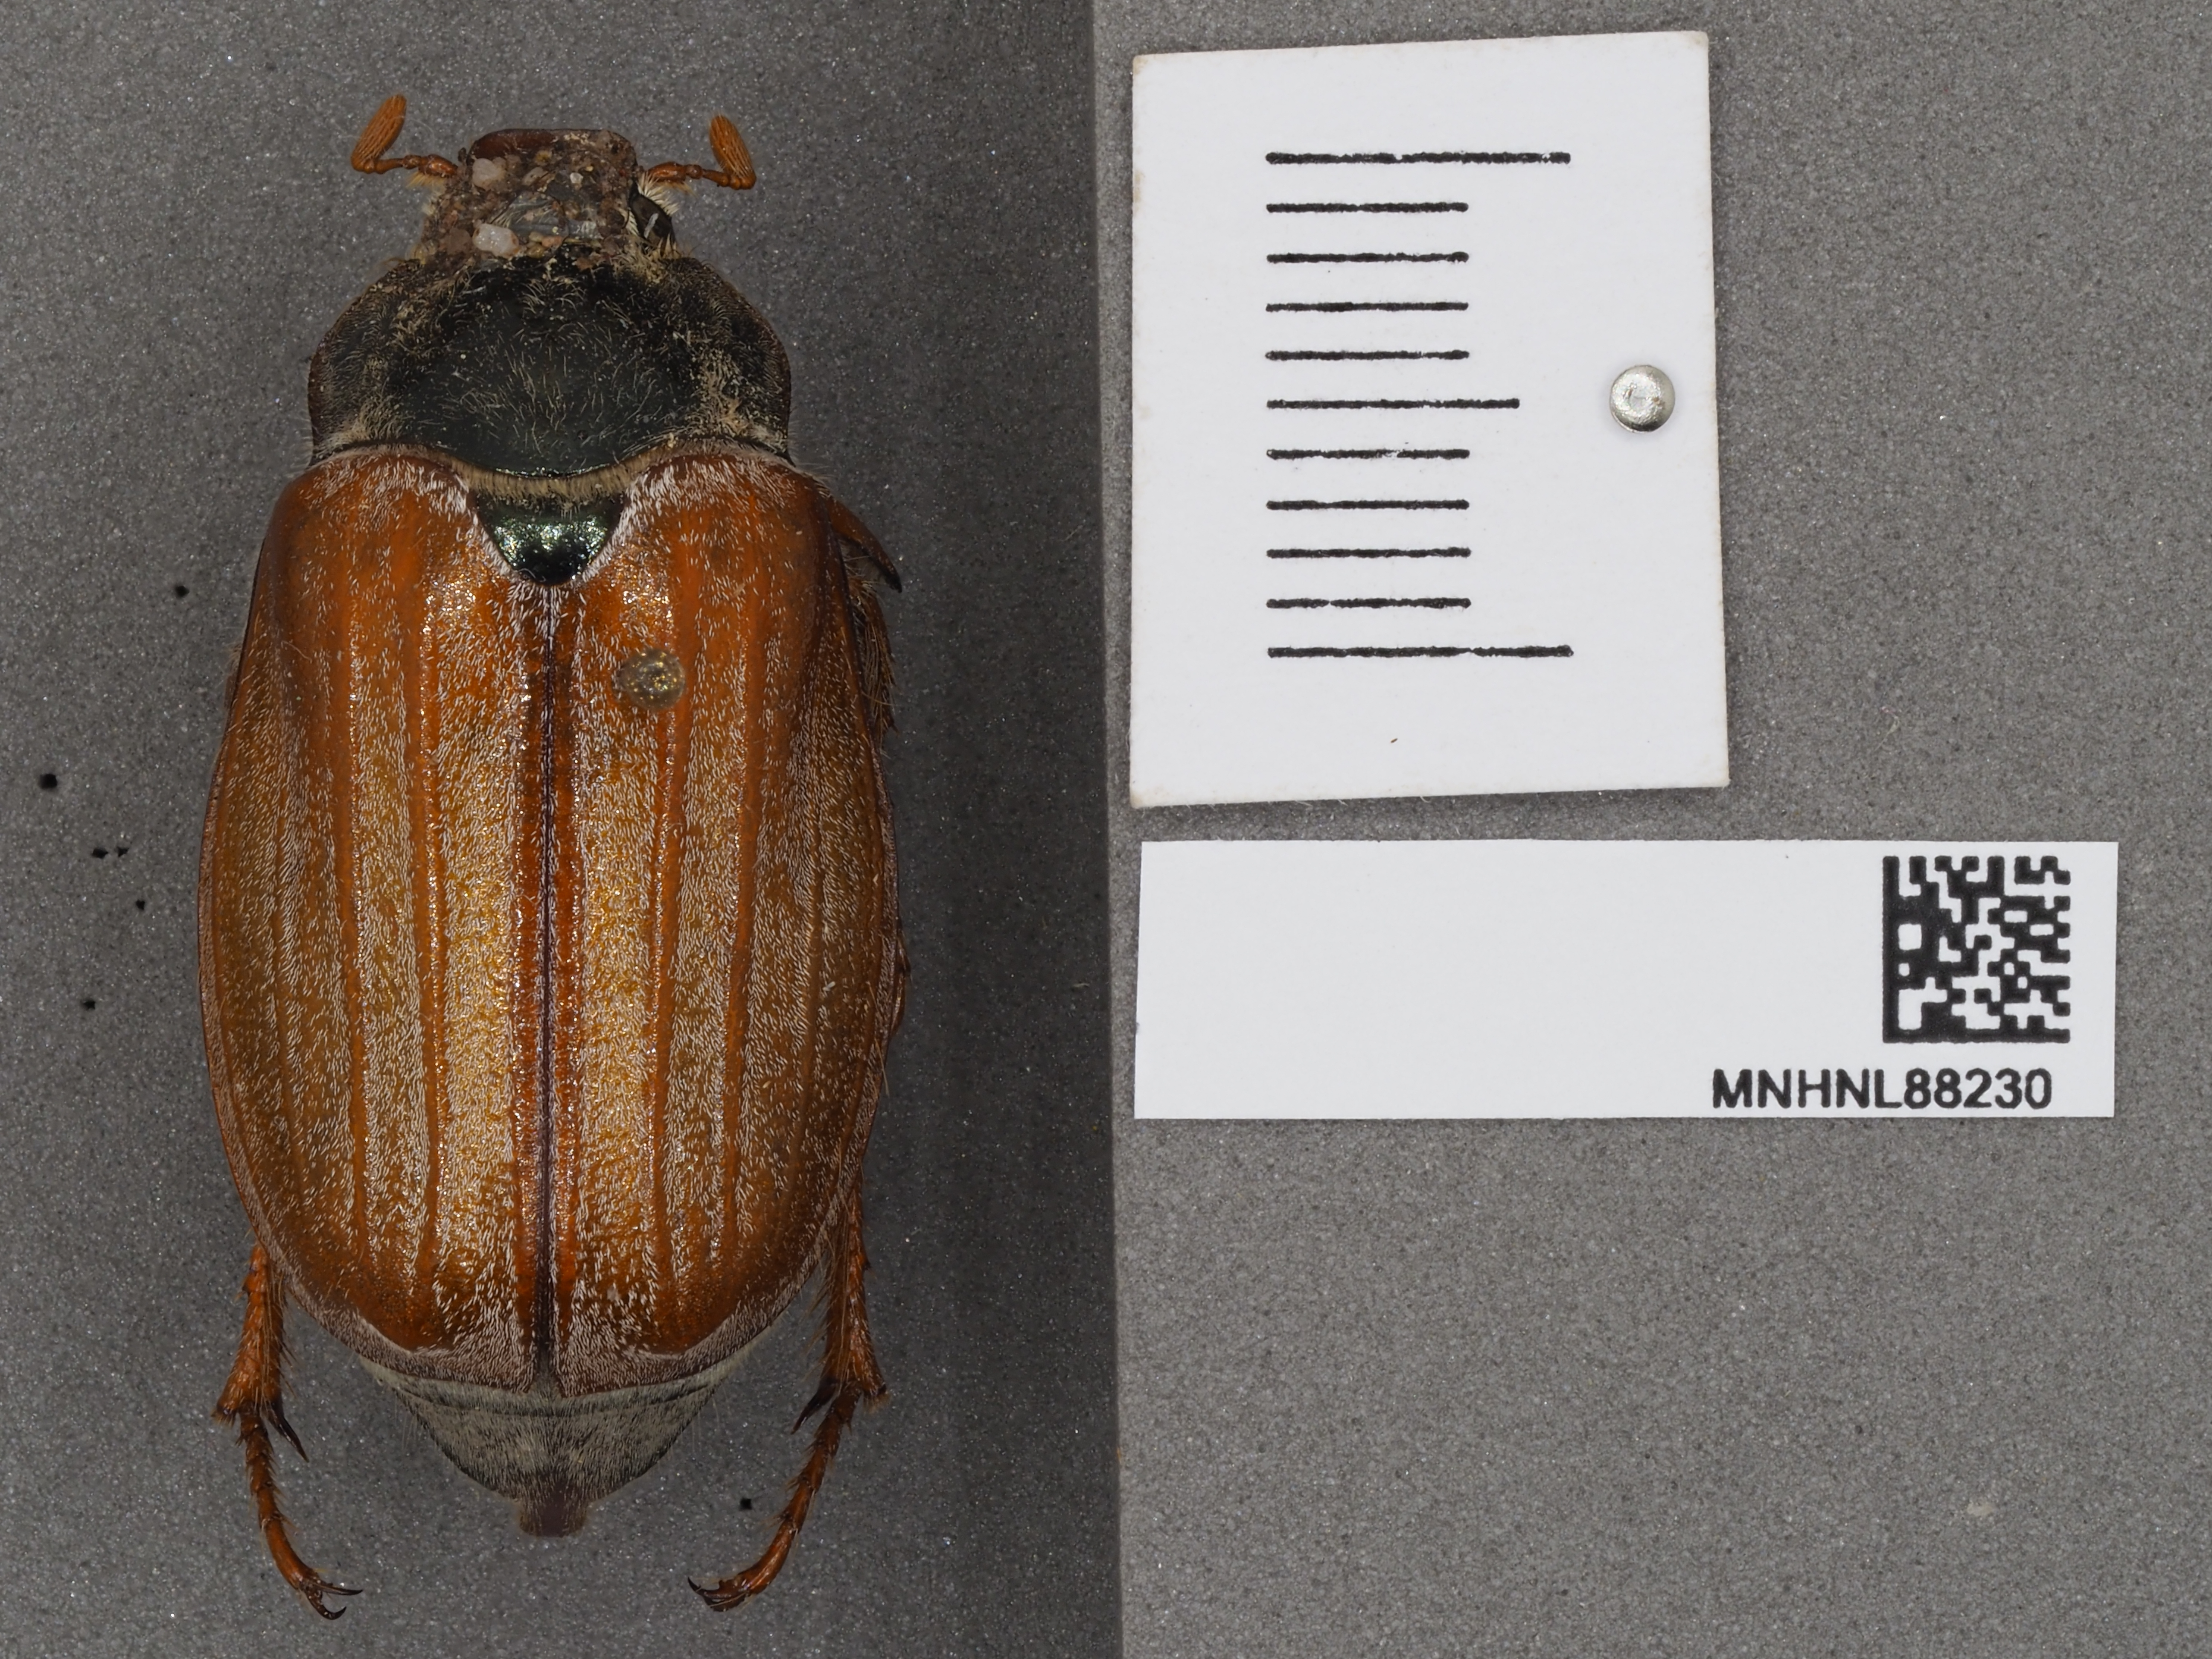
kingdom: Animalia
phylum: Arthropoda
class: Insecta
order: Coleoptera
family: Scarabaeidae
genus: Melolontha
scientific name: Melolontha melolontha
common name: Cockchafer maybeetle
